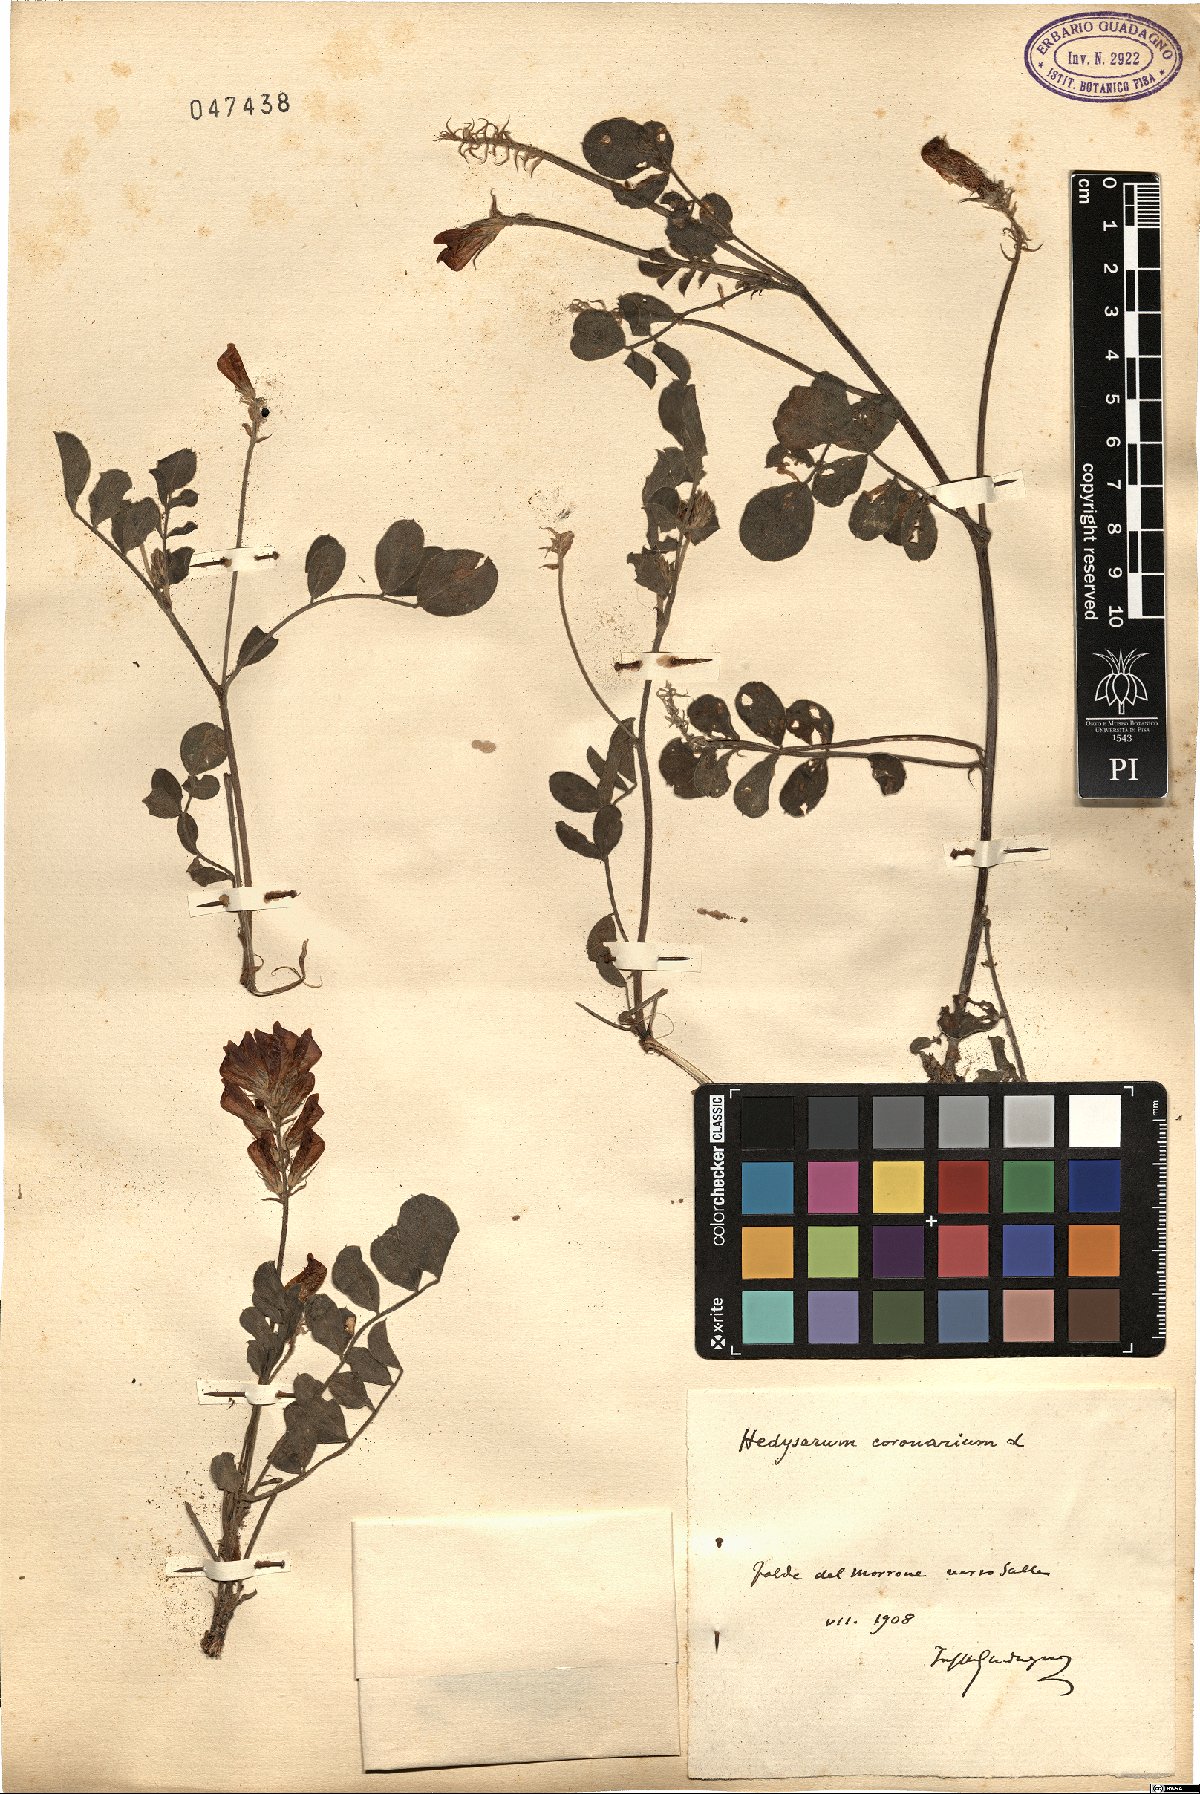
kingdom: Plantae
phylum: Tracheophyta
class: Magnoliopsida
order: Fabales
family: Fabaceae
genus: Sulla
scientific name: Sulla coronaria
